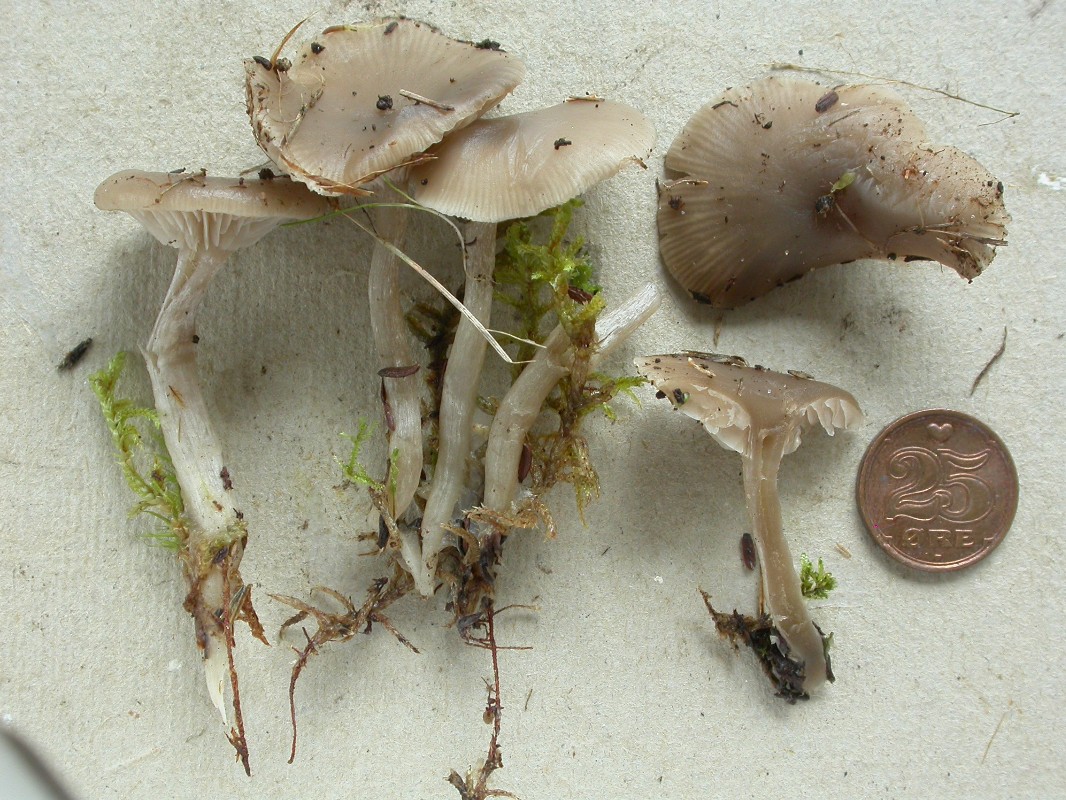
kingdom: Fungi
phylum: Basidiomycota
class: Agaricomycetes
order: Agaricales
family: Tricholomataceae
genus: Clitocybe
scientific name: Clitocybe vibecina
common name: randstribet tragthat
